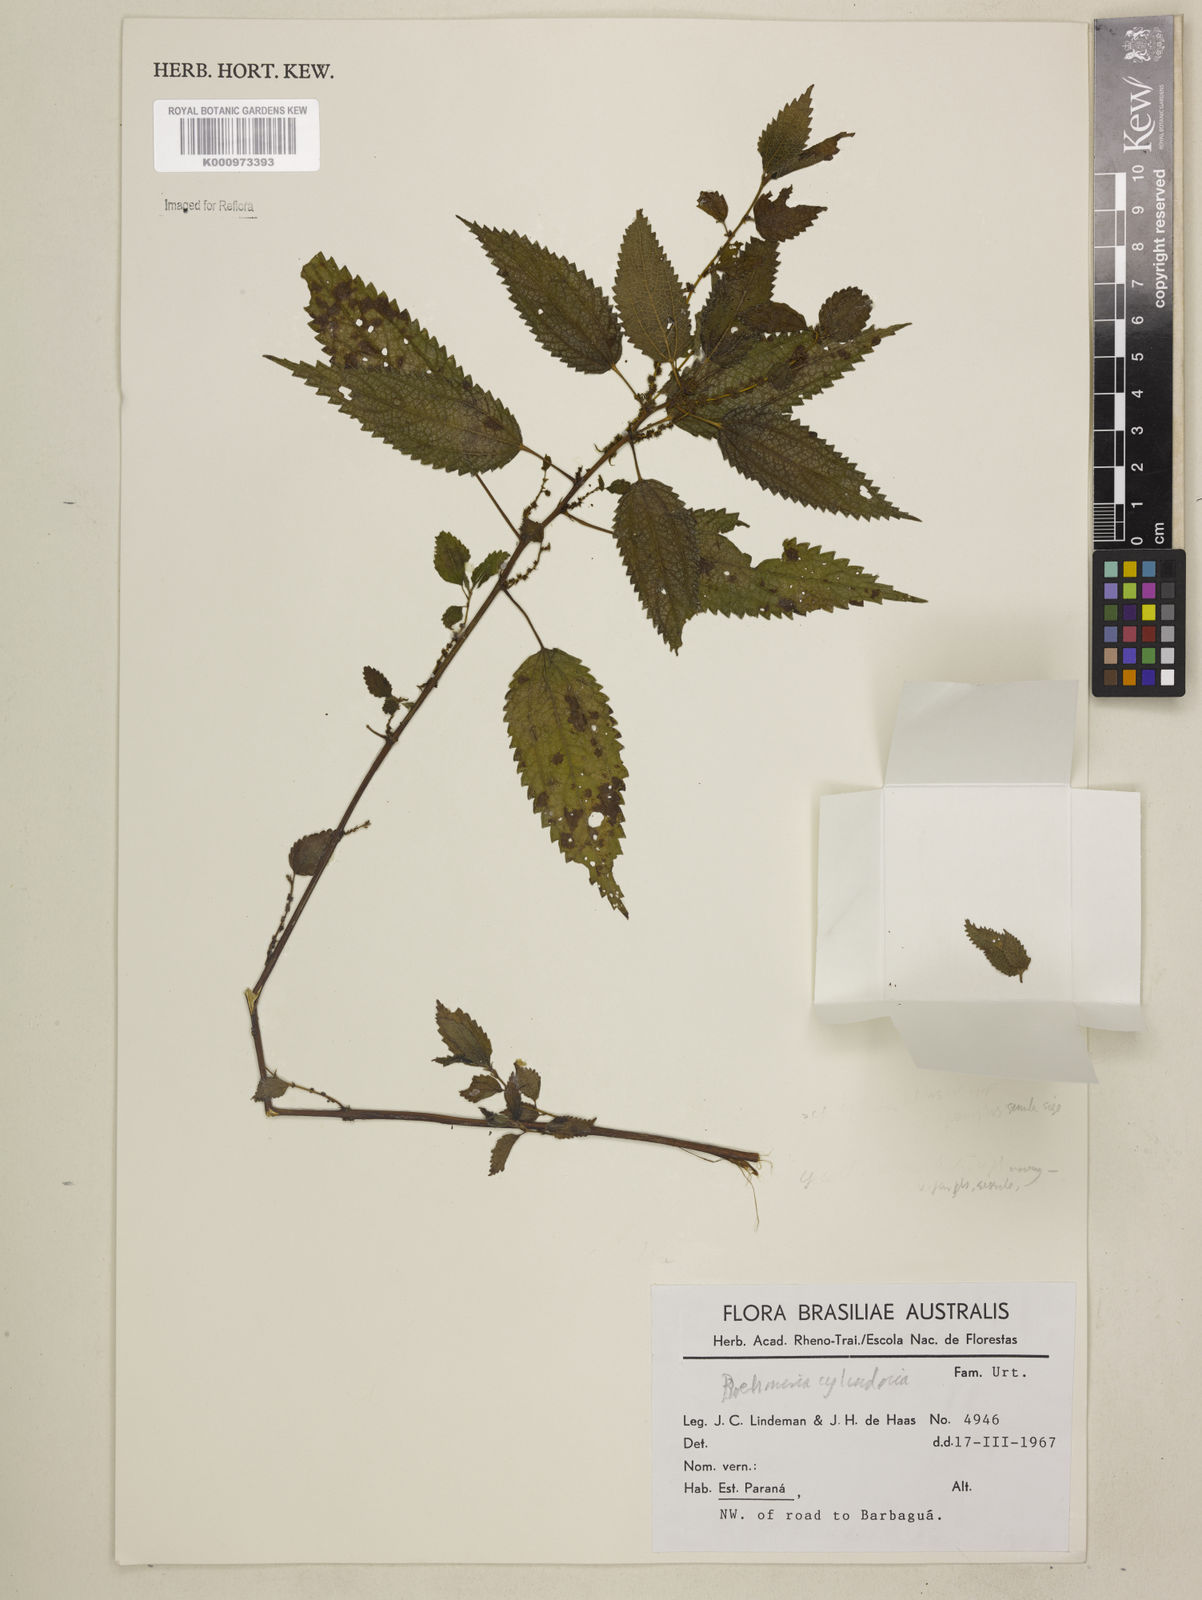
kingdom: Plantae
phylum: Tracheophyta
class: Magnoliopsida
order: Rosales
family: Urticaceae
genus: Boehmeria
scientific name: Boehmeria cylindrica
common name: Bog-hemp
